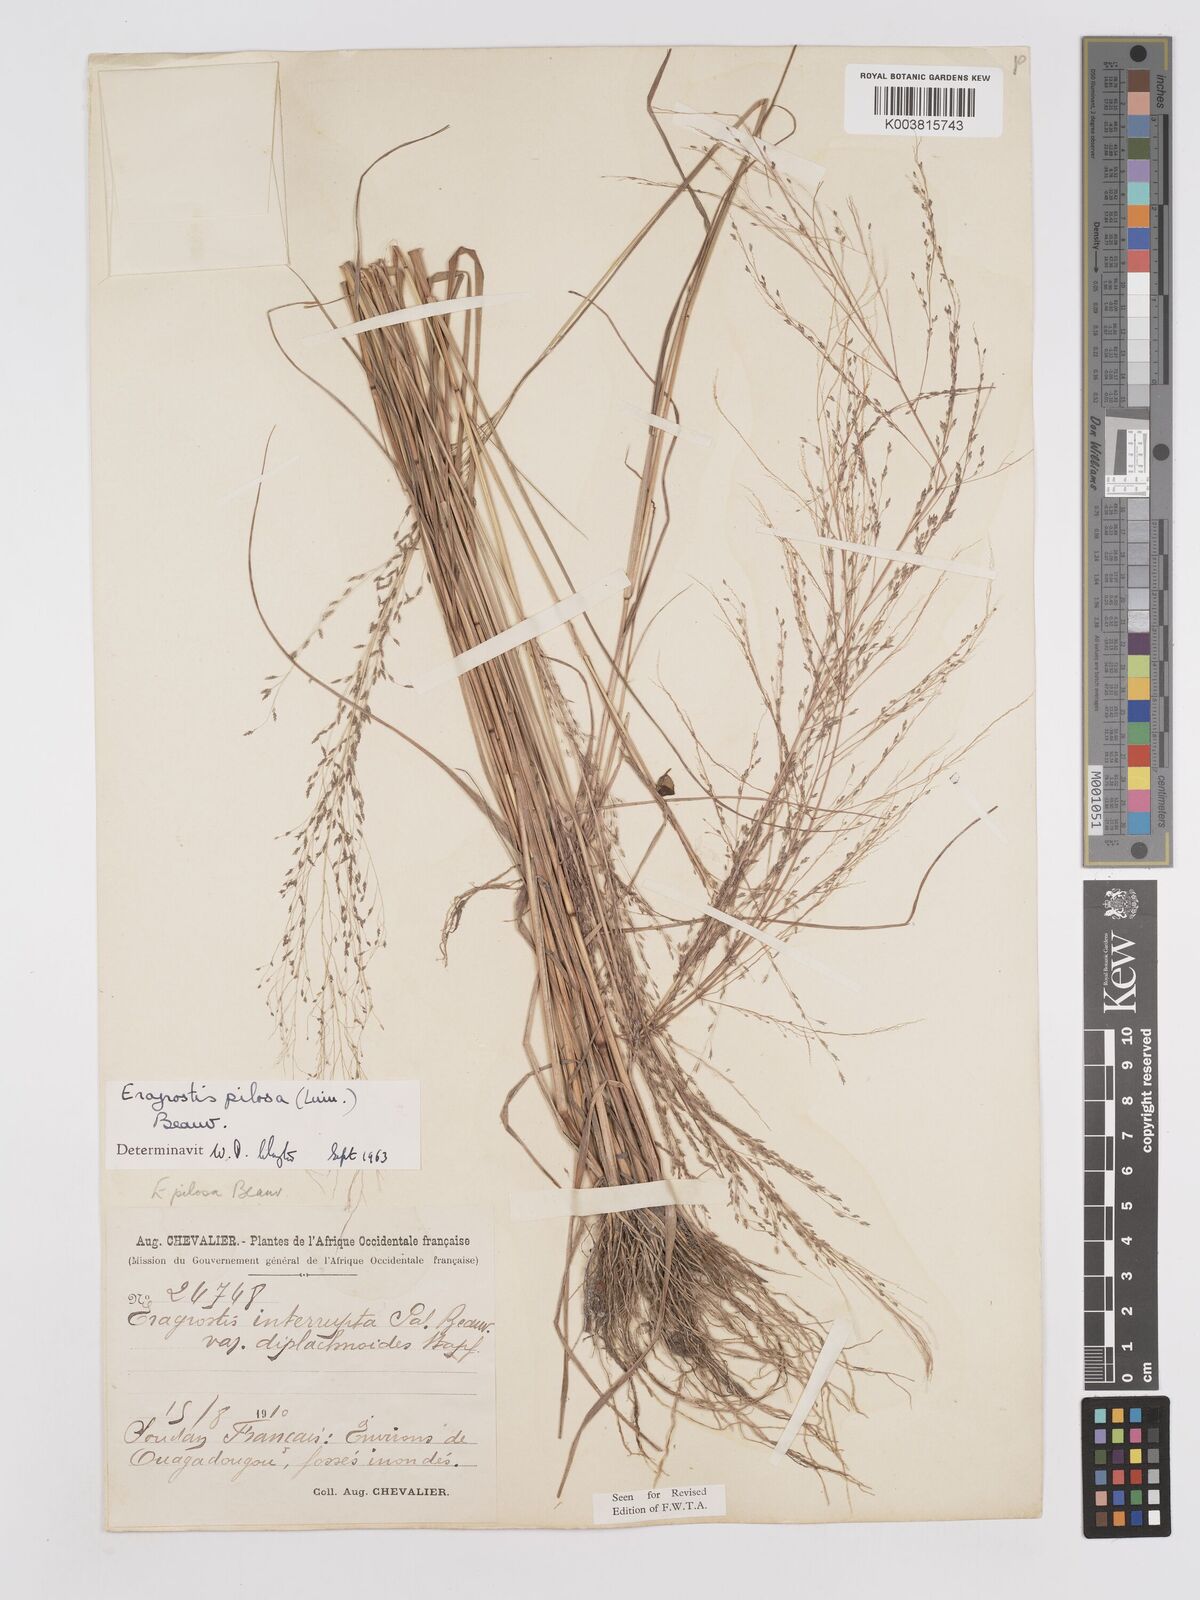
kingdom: Plantae
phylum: Tracheophyta
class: Liliopsida
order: Poales
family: Poaceae
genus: Eragrostis
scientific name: Eragrostis pilosa
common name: Indian lovegrass
